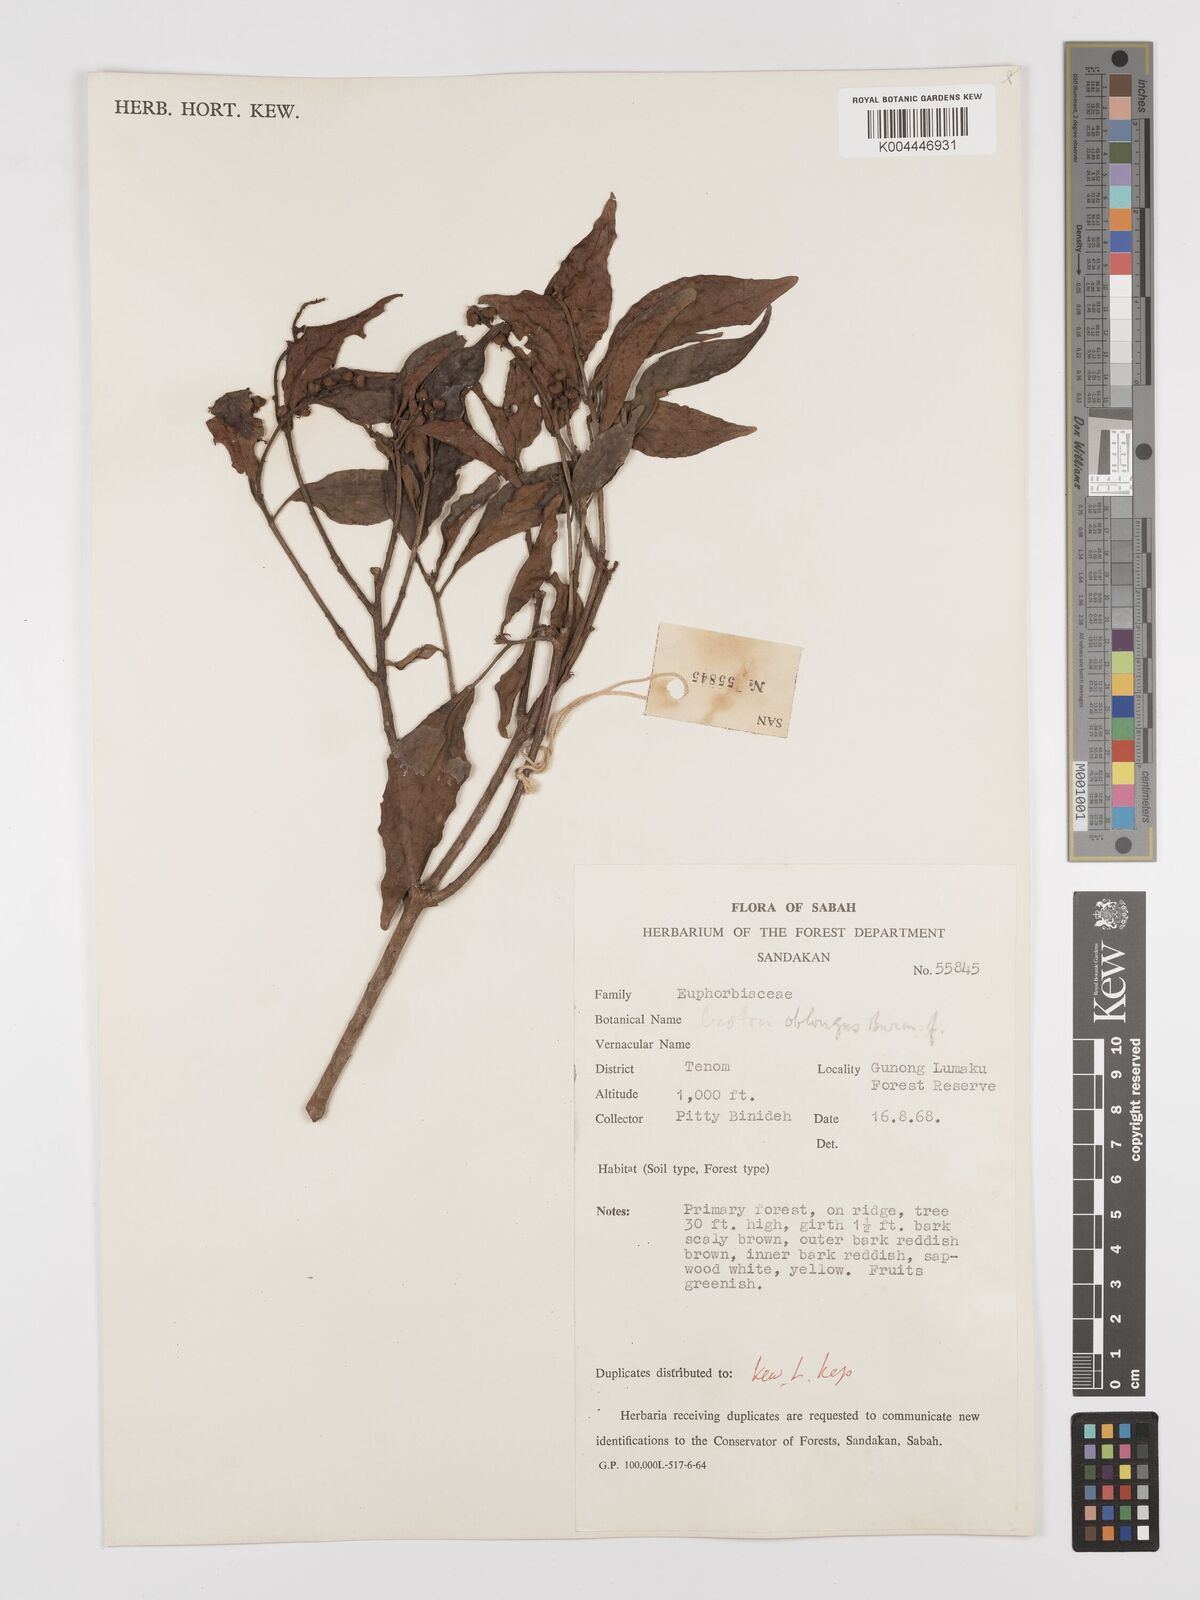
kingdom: Plantae
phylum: Tracheophyta
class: Magnoliopsida
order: Malpighiales
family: Euphorbiaceae
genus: Croton
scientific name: Croton oblongus
